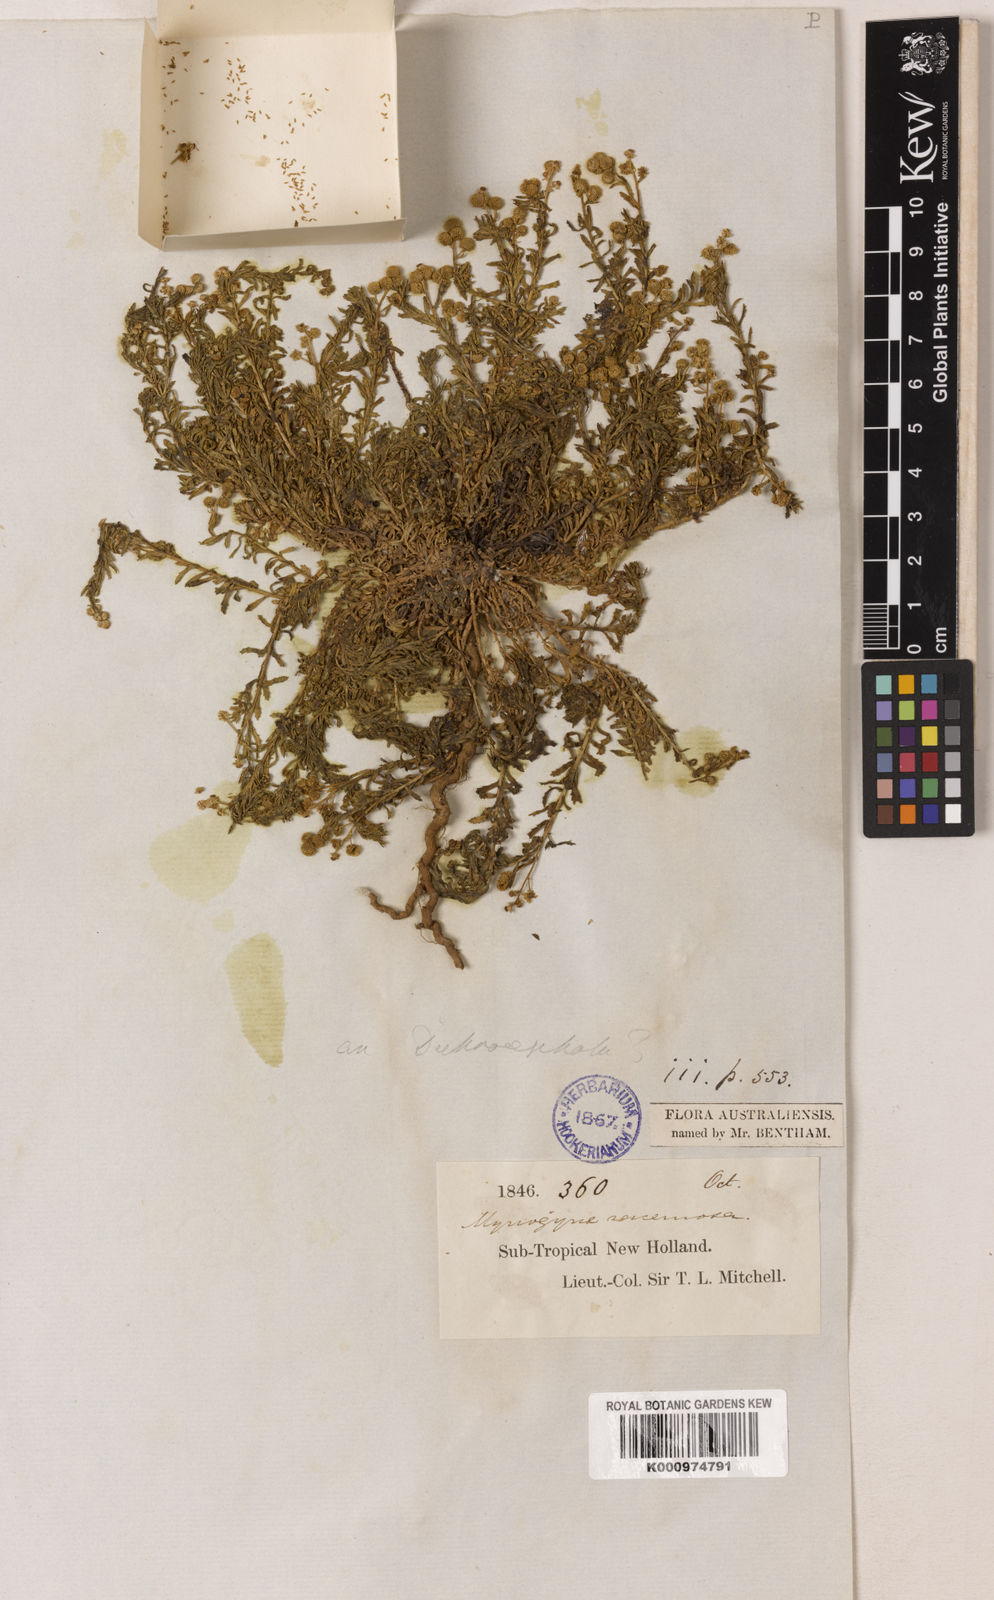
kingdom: Plantae
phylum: Tracheophyta
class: Magnoliopsida
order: Asterales
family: Asteraceae
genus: Centipeda
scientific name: Centipeda racemosa
